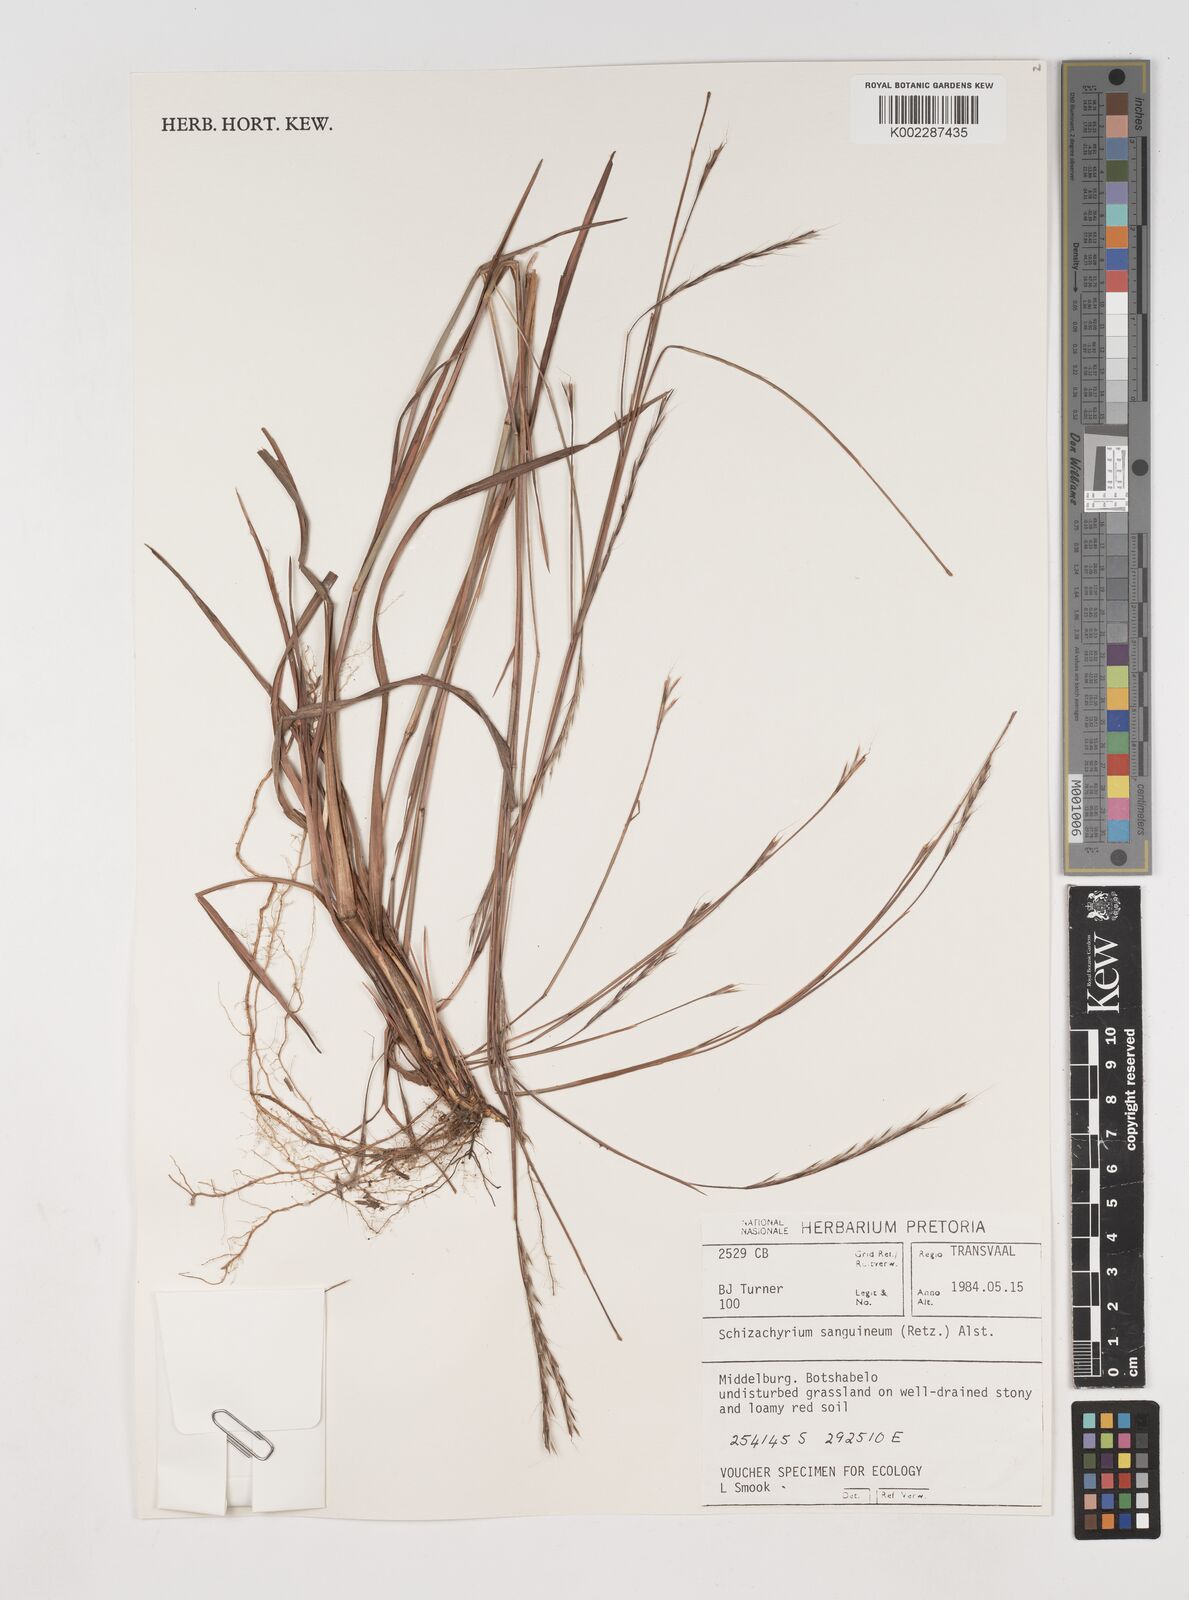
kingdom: Plantae
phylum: Tracheophyta
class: Liliopsida
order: Poales
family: Poaceae
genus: Schizachyrium
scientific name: Schizachyrium sanguineum
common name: Crimson bluestem
